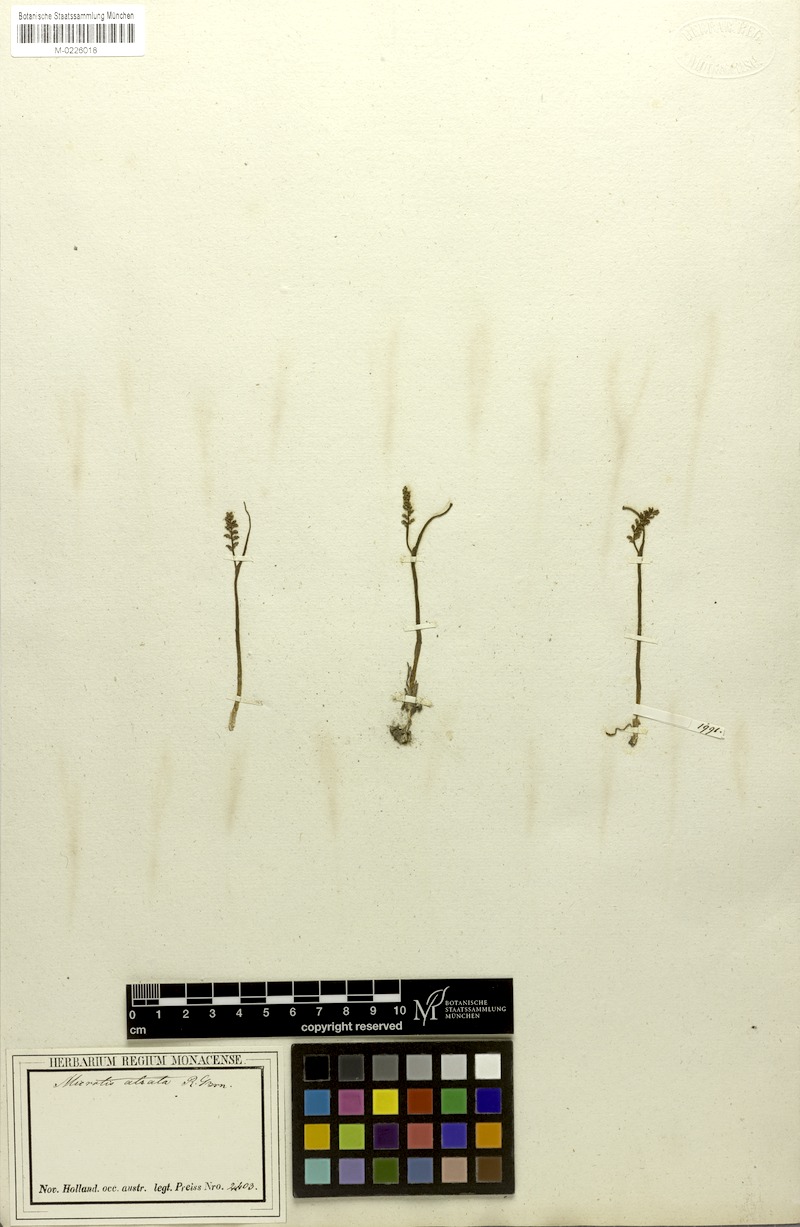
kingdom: Plantae
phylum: Tracheophyta
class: Liliopsida
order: Asparagales
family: Orchidaceae
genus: Microtis
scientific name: Microtis atrata
